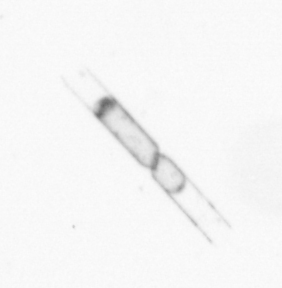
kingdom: Chromista
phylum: Ochrophyta
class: Bacillariophyceae
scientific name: Bacillariophyceae
